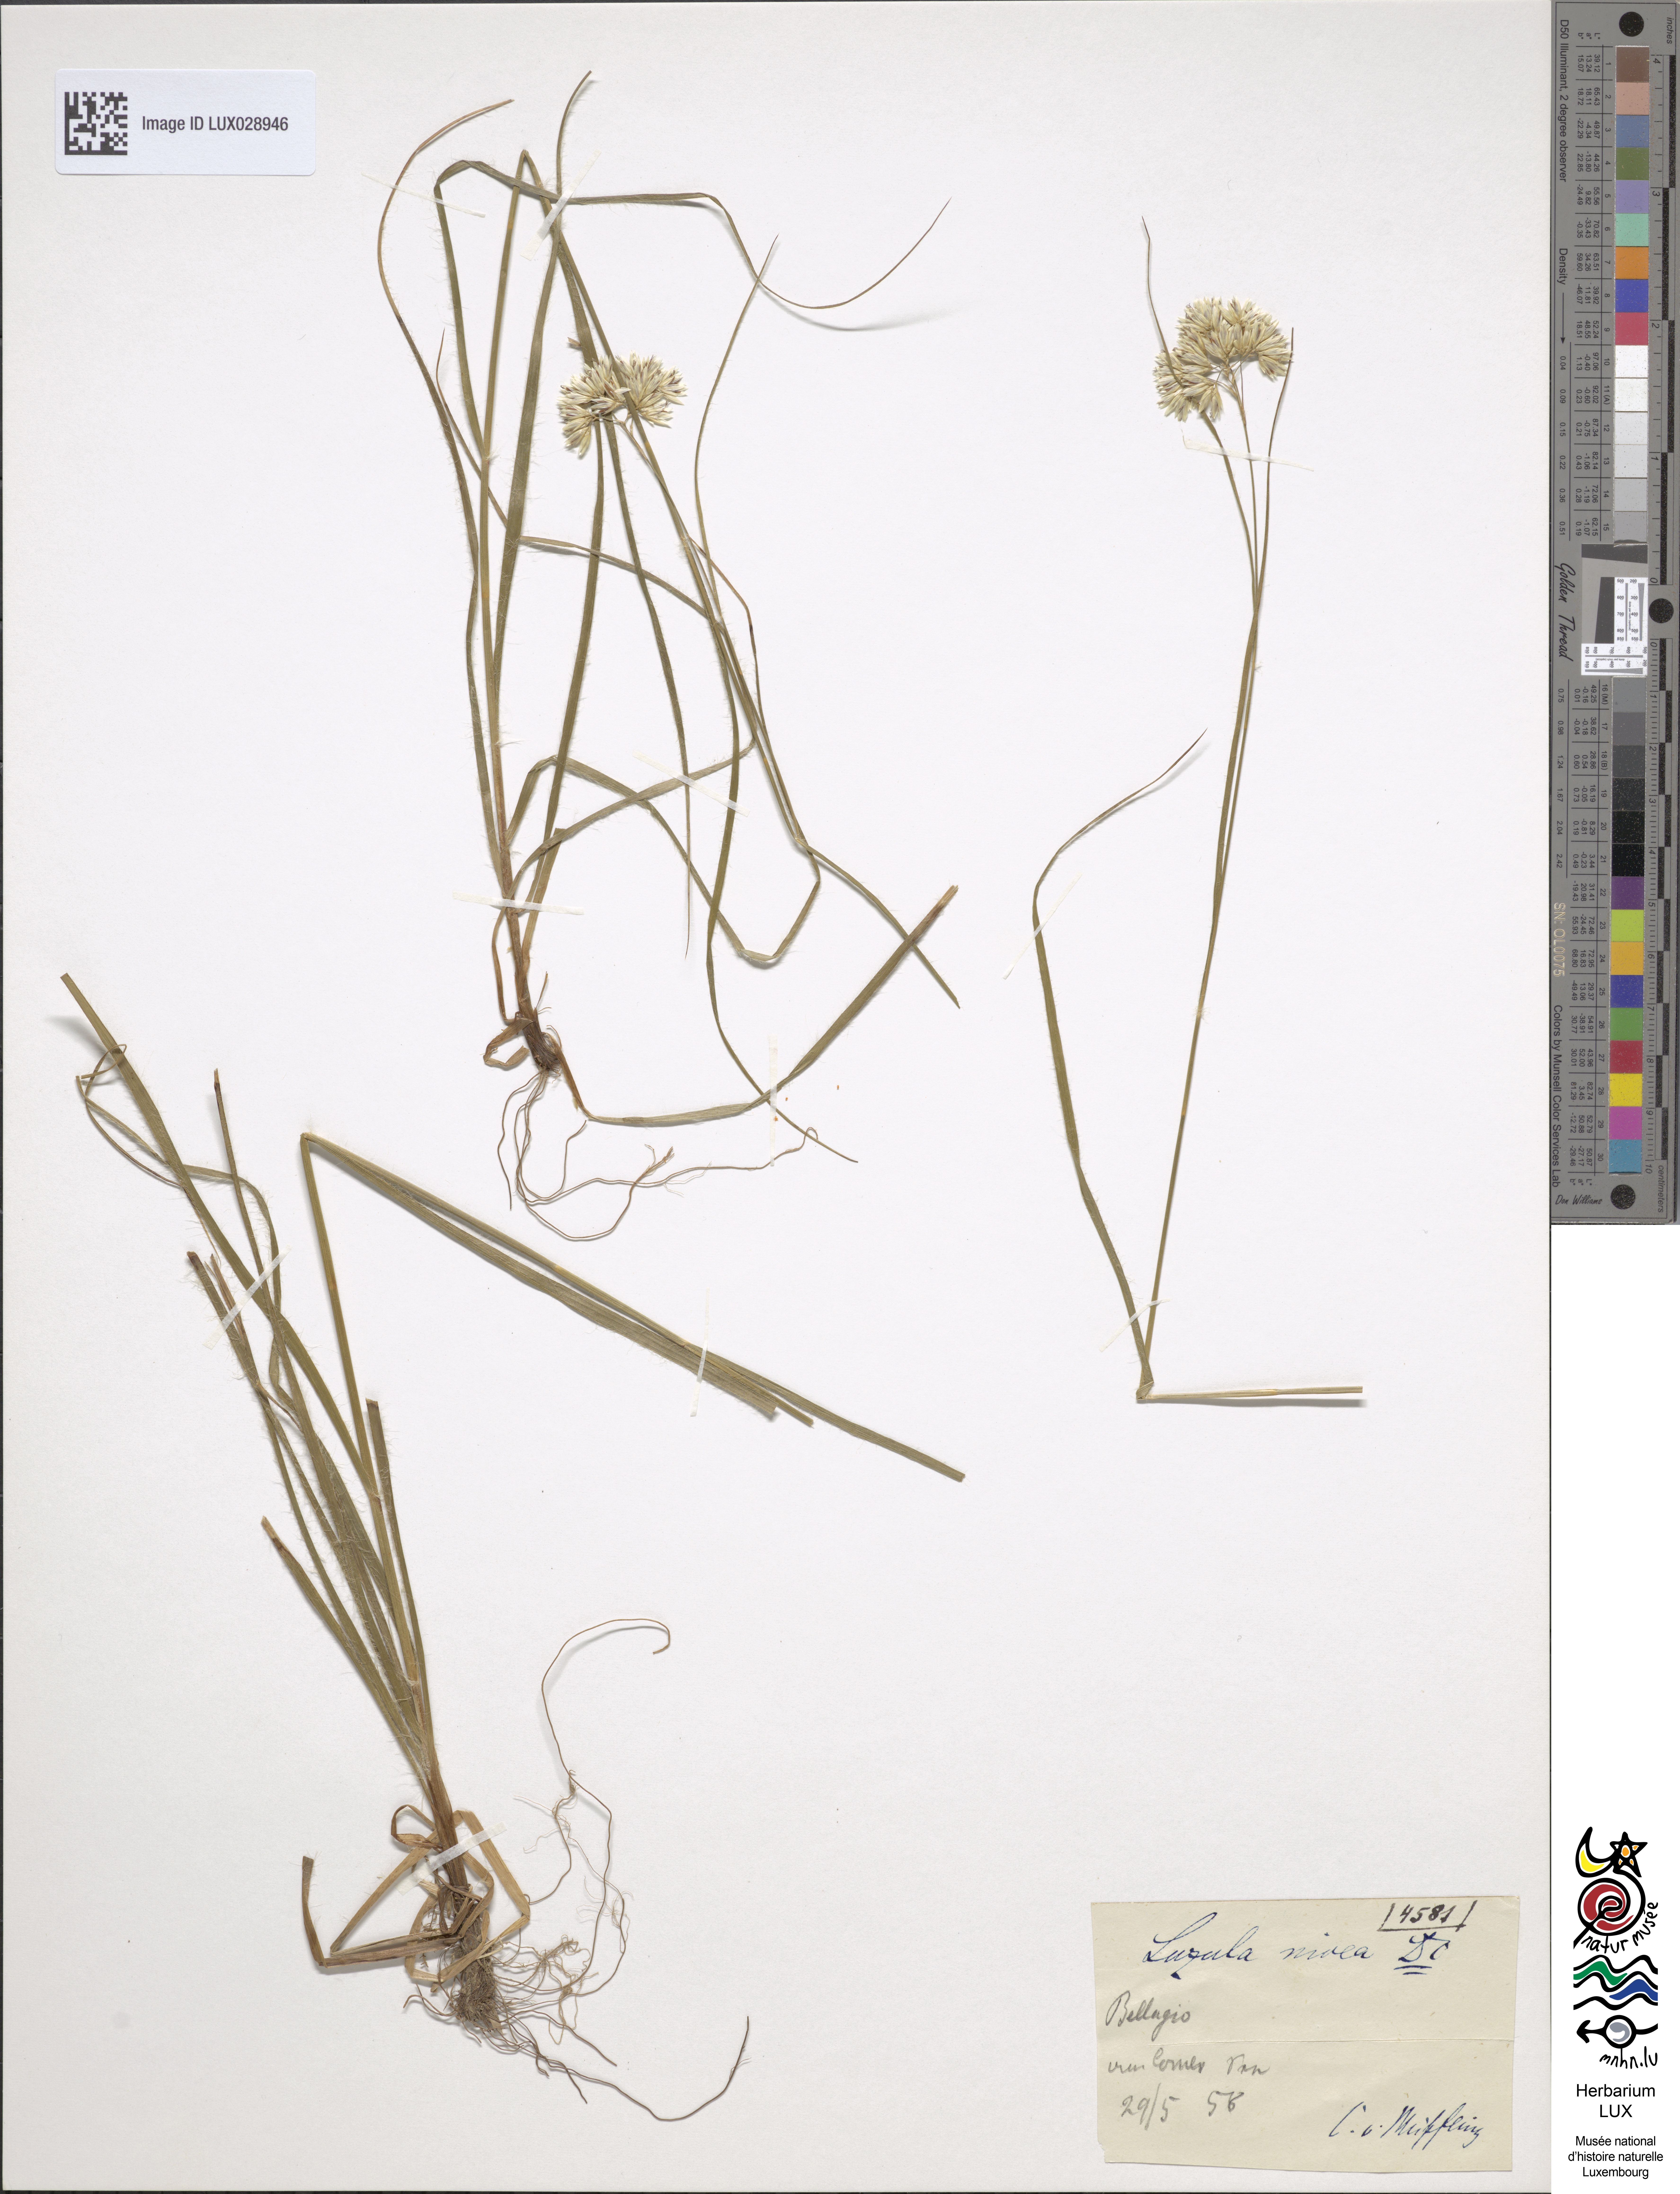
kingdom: Plantae
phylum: Tracheophyta
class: Liliopsida
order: Poales
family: Juncaceae
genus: Luzula
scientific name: Luzula nivea
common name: Snow-white wood-rush
